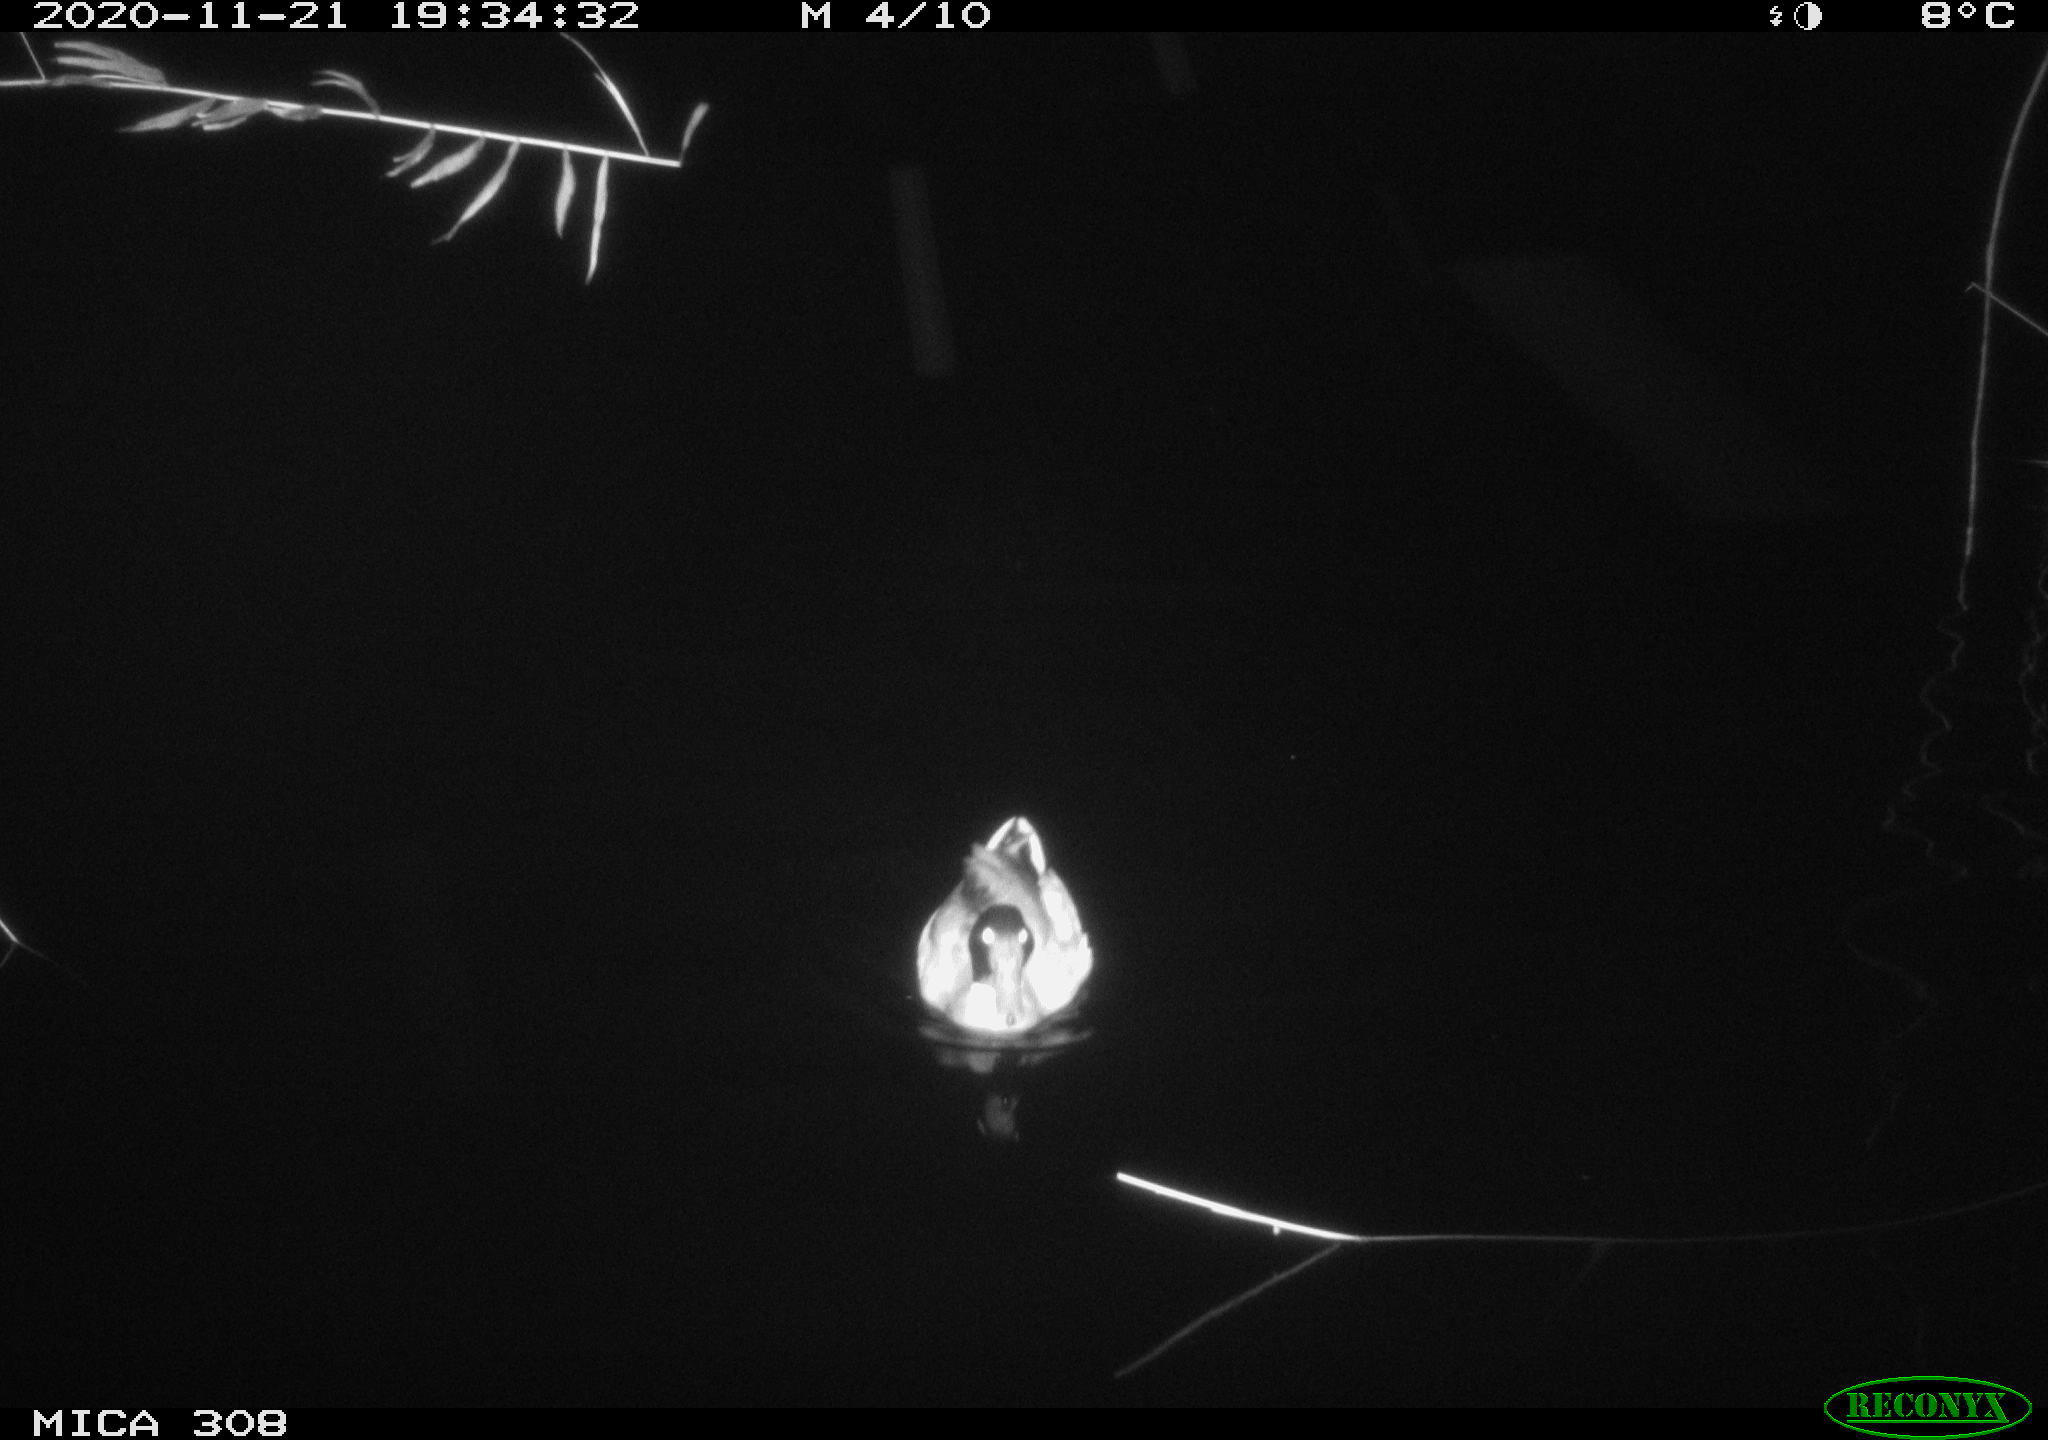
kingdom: Animalia
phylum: Chordata
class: Aves
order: Anseriformes
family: Anatidae
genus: Anas
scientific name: Anas platyrhynchos
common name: Mallard
